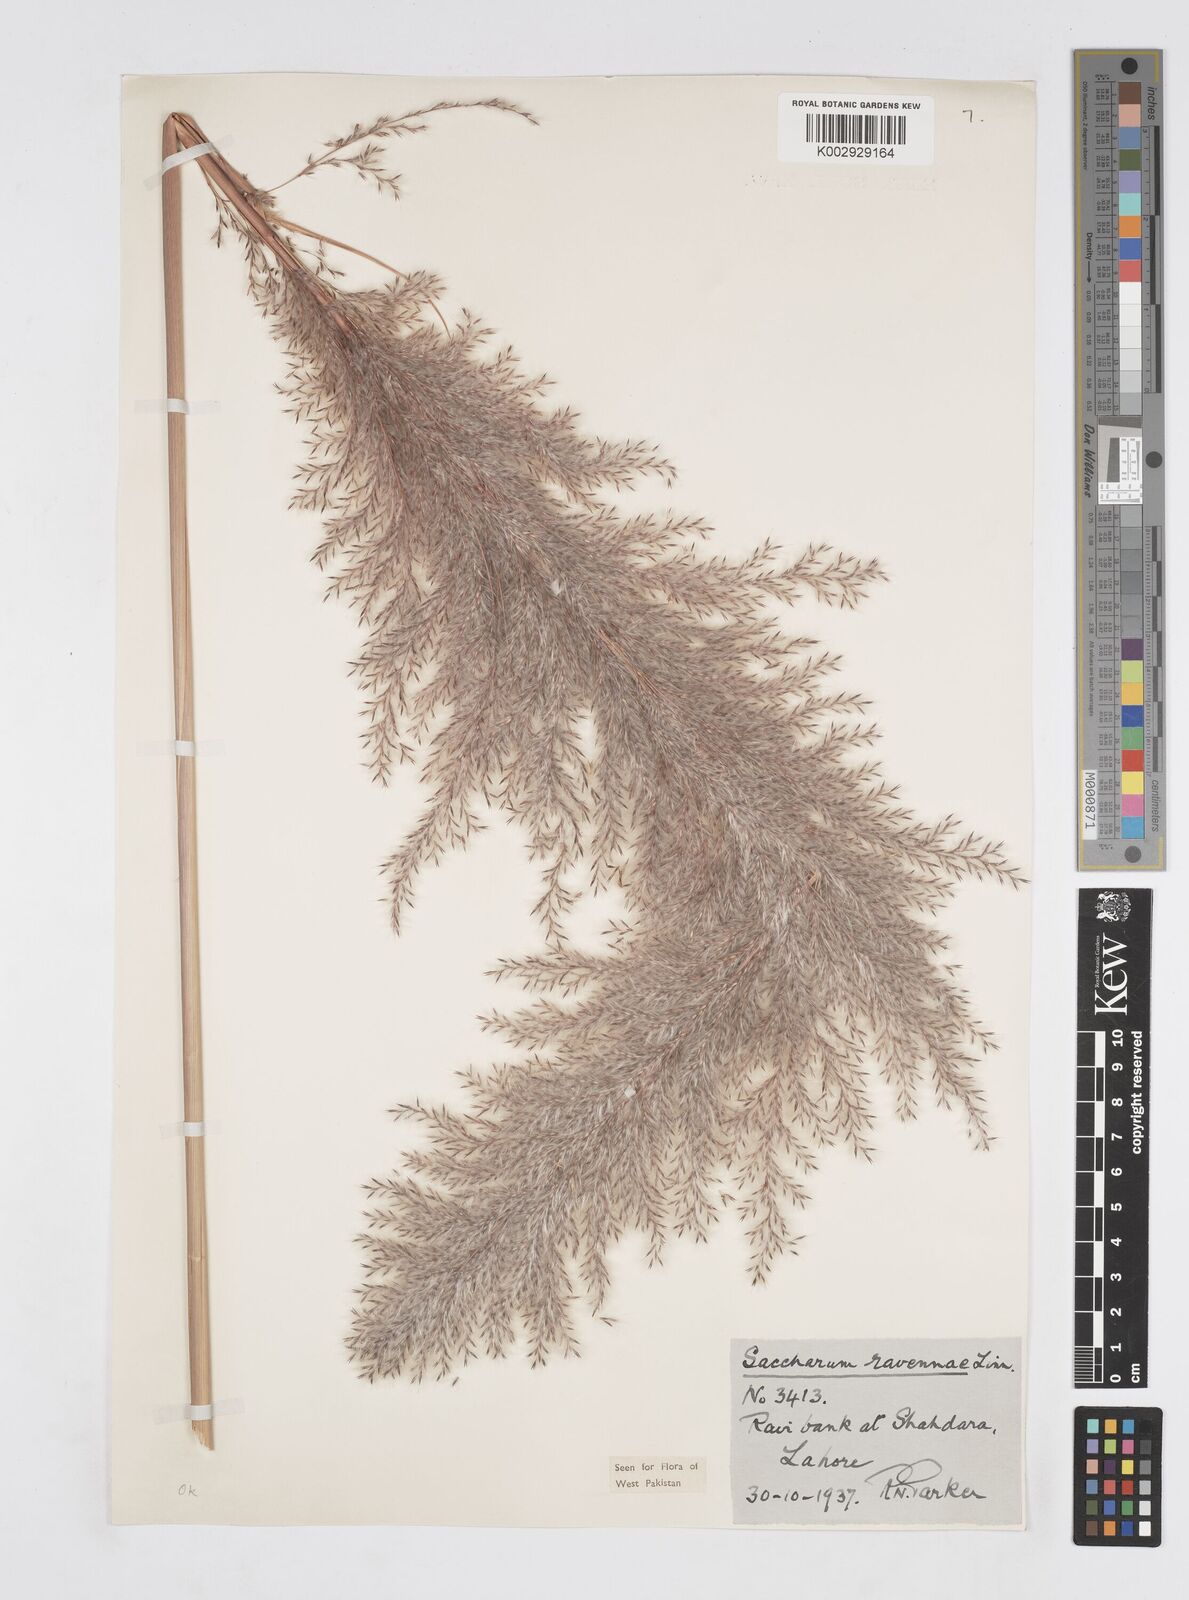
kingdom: Plantae
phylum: Tracheophyta
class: Liliopsida
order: Poales
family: Poaceae
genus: Tripidium
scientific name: Tripidium ravennae
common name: Ravenna grass
